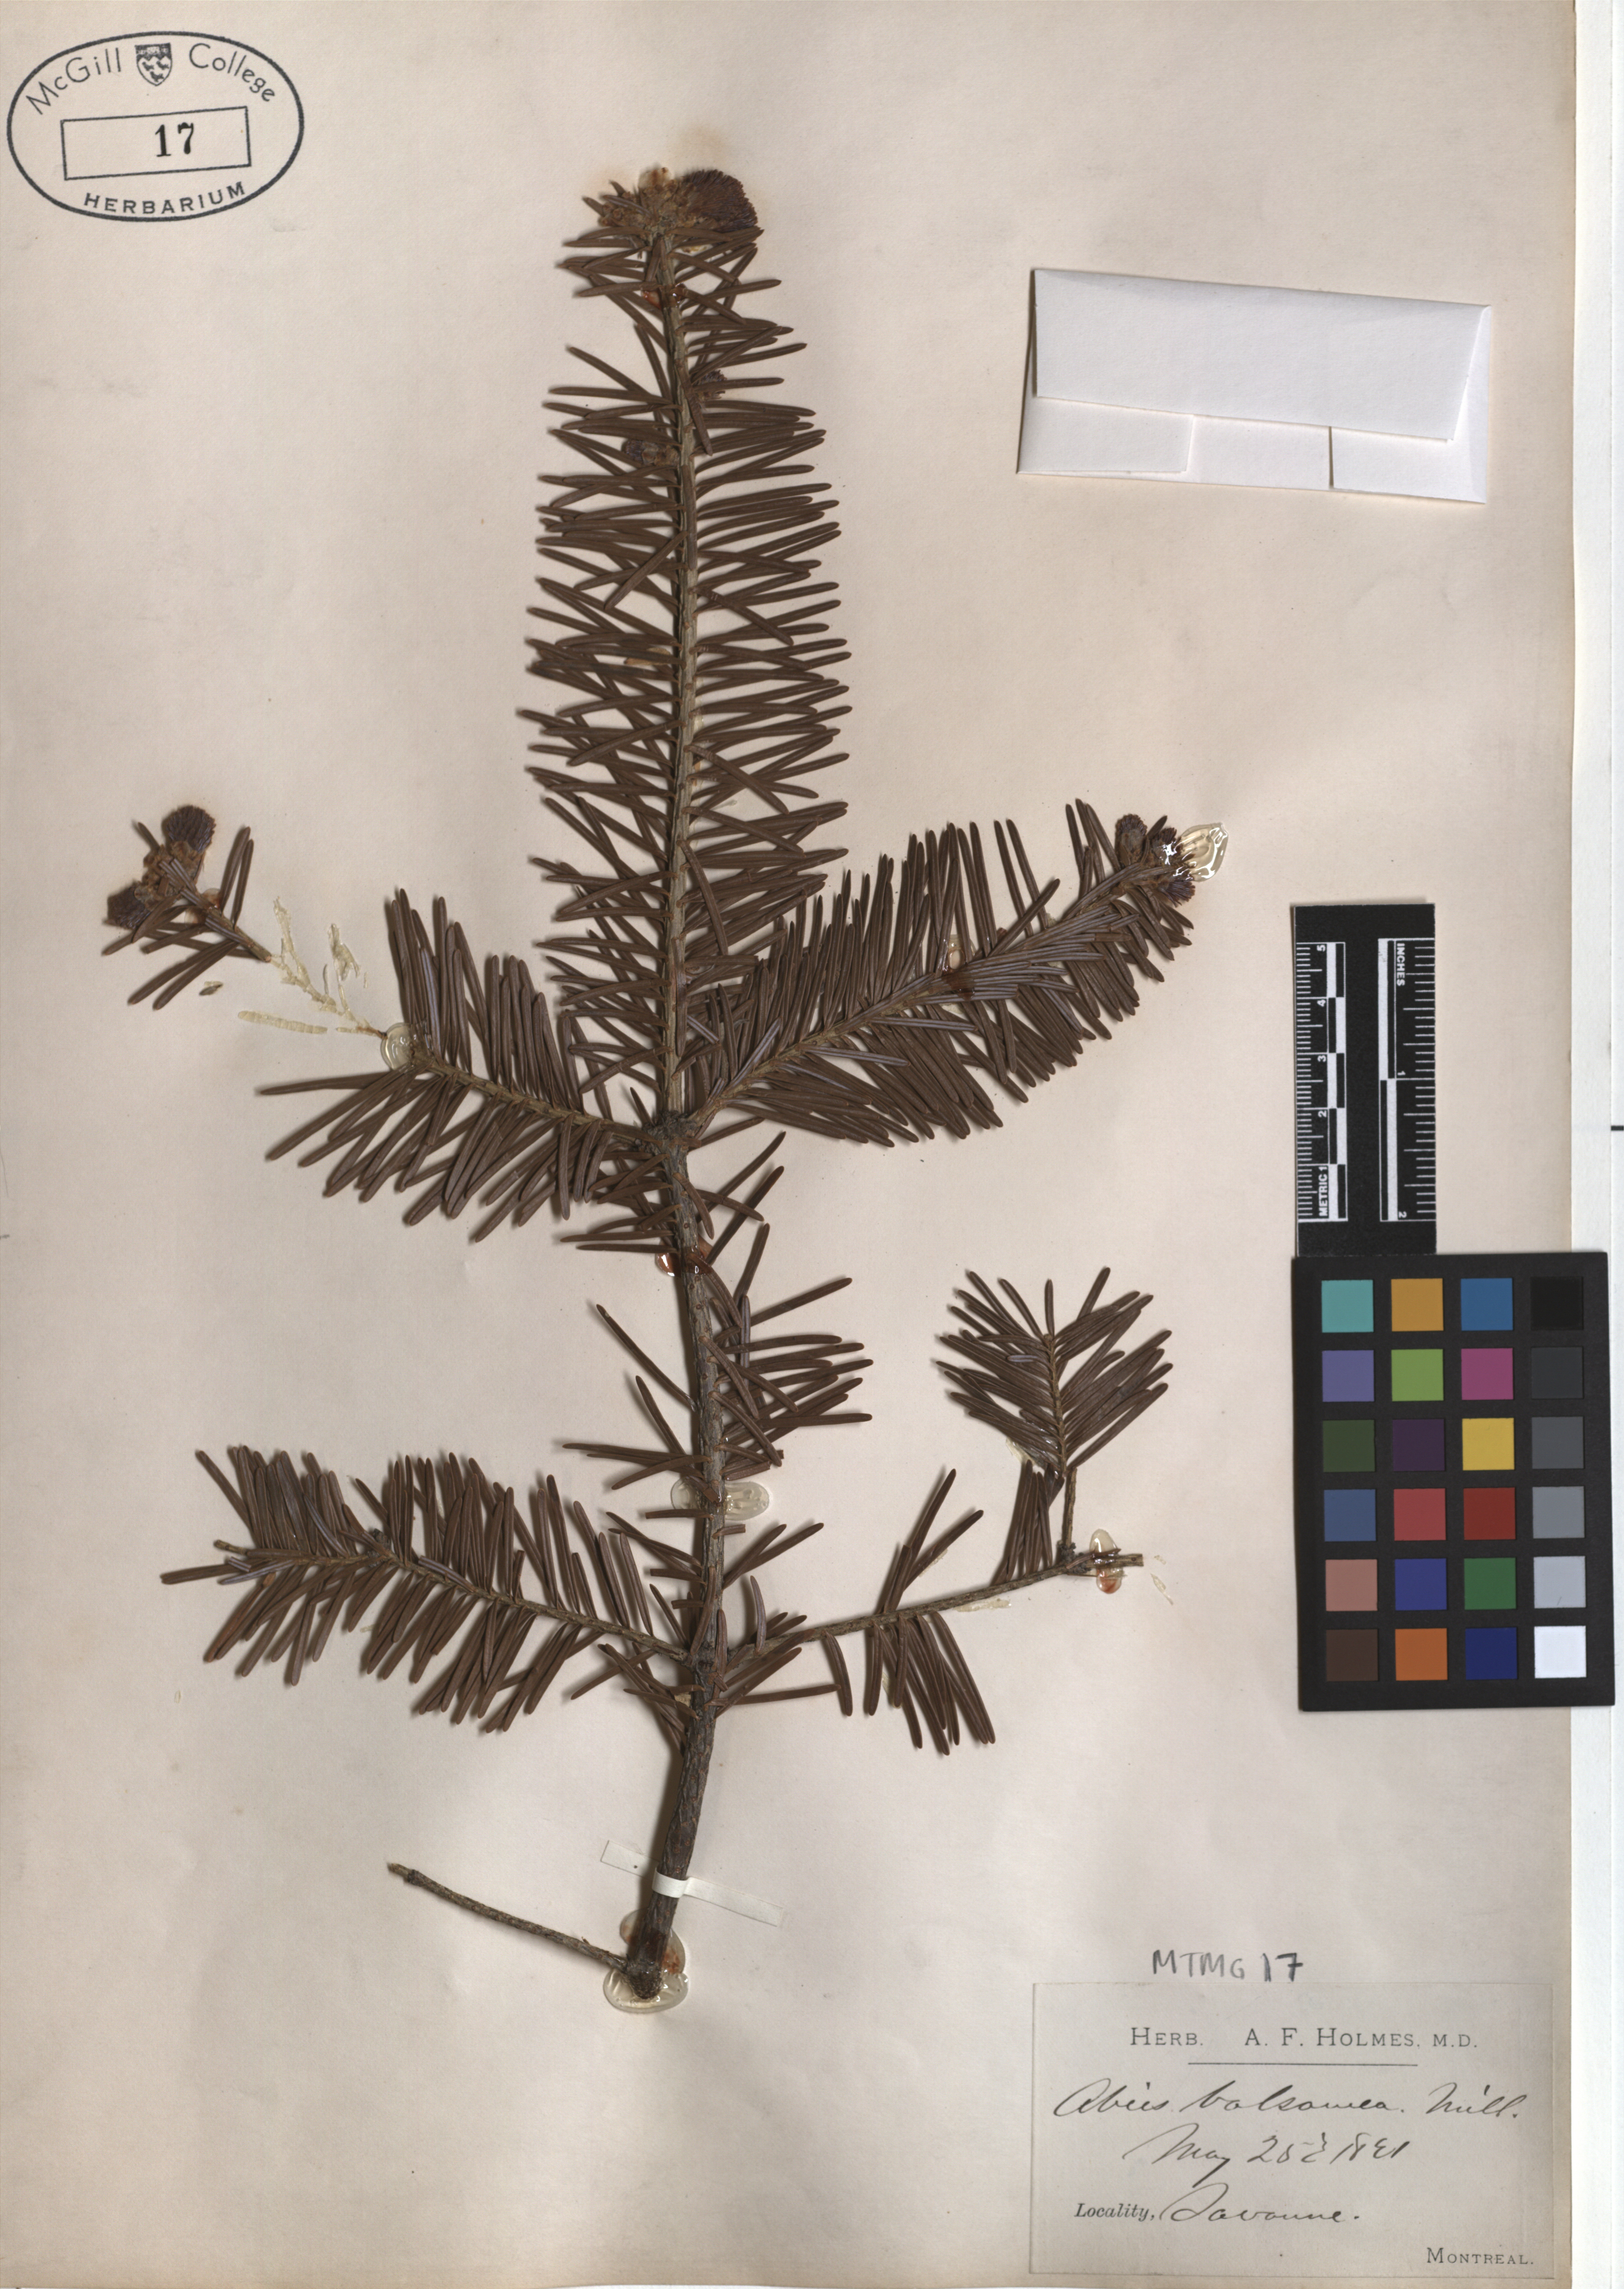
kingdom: Plantae
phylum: Tracheophyta
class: Pinopsida
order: Pinales
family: Pinaceae
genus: Abies
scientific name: Abies balsamea
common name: Balsam fir
